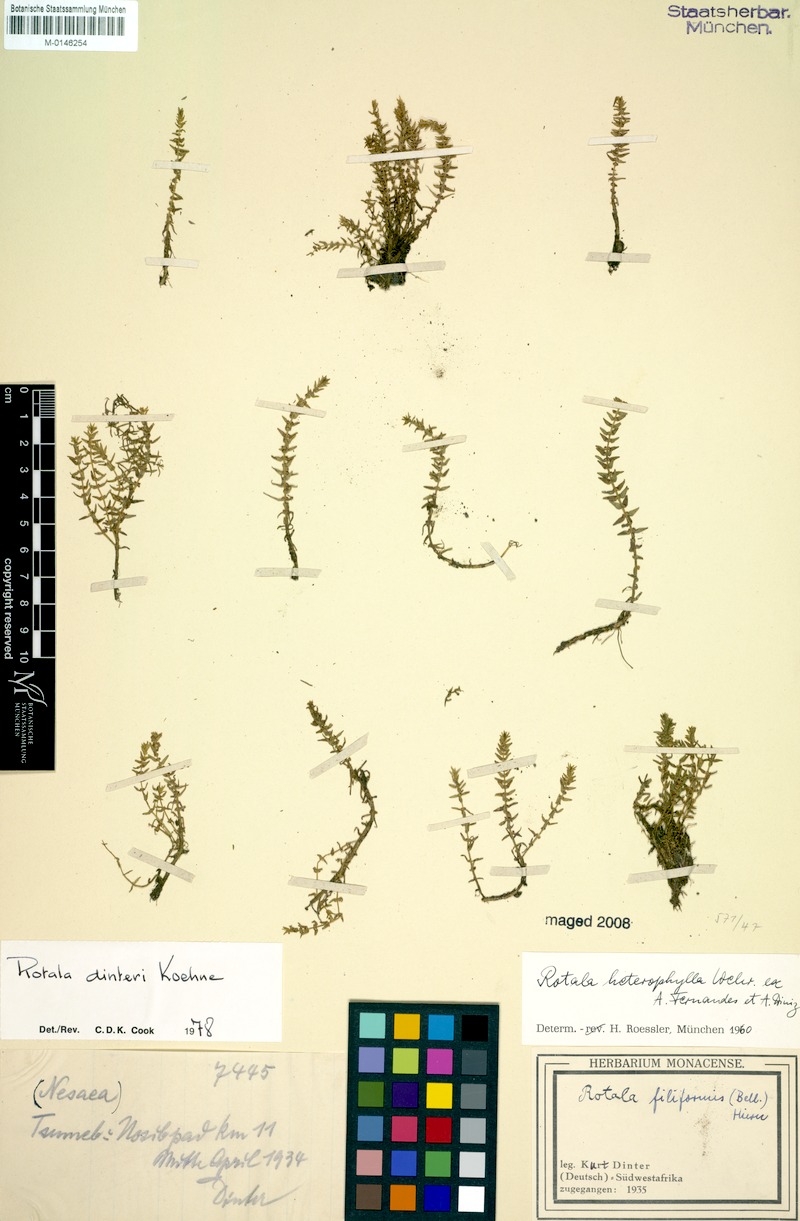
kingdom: Plantae
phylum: Tracheophyta
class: Magnoliopsida
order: Myrtales
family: Lythraceae
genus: Rotala
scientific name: Rotala dinteri
